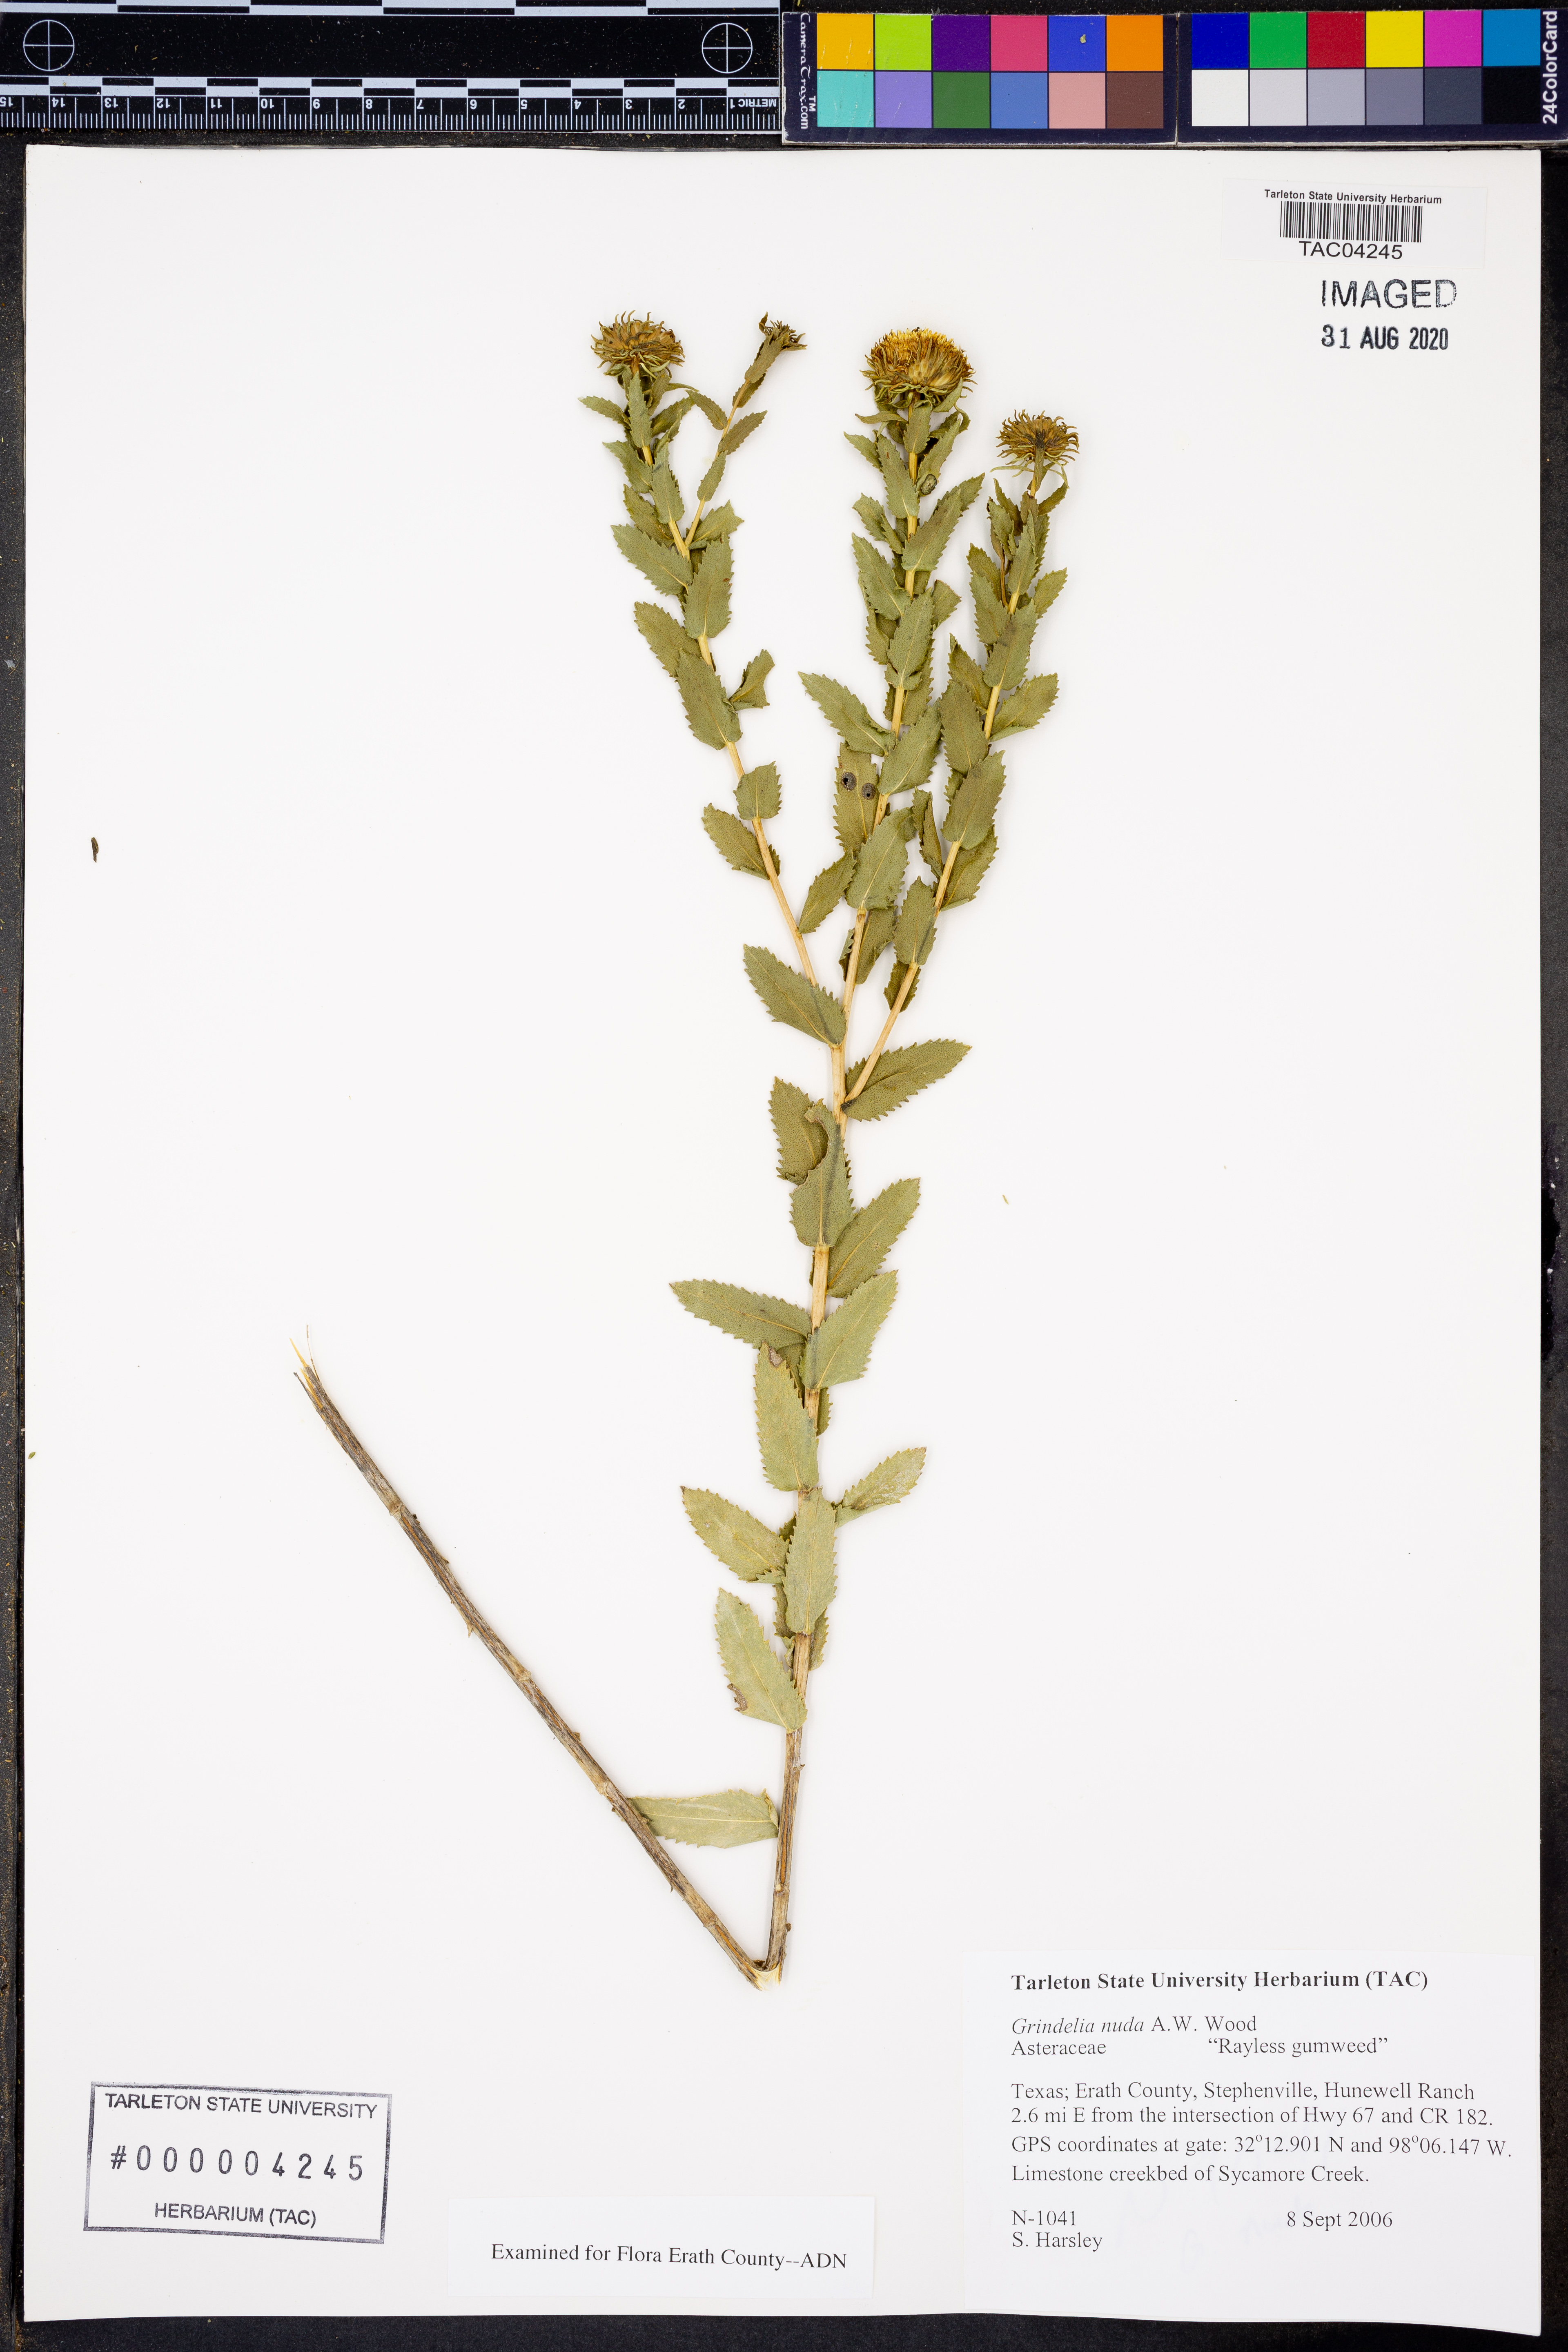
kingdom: Plantae
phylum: Tracheophyta
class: Magnoliopsida
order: Asterales
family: Asteraceae
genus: Grindelia
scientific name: Grindelia nuda
